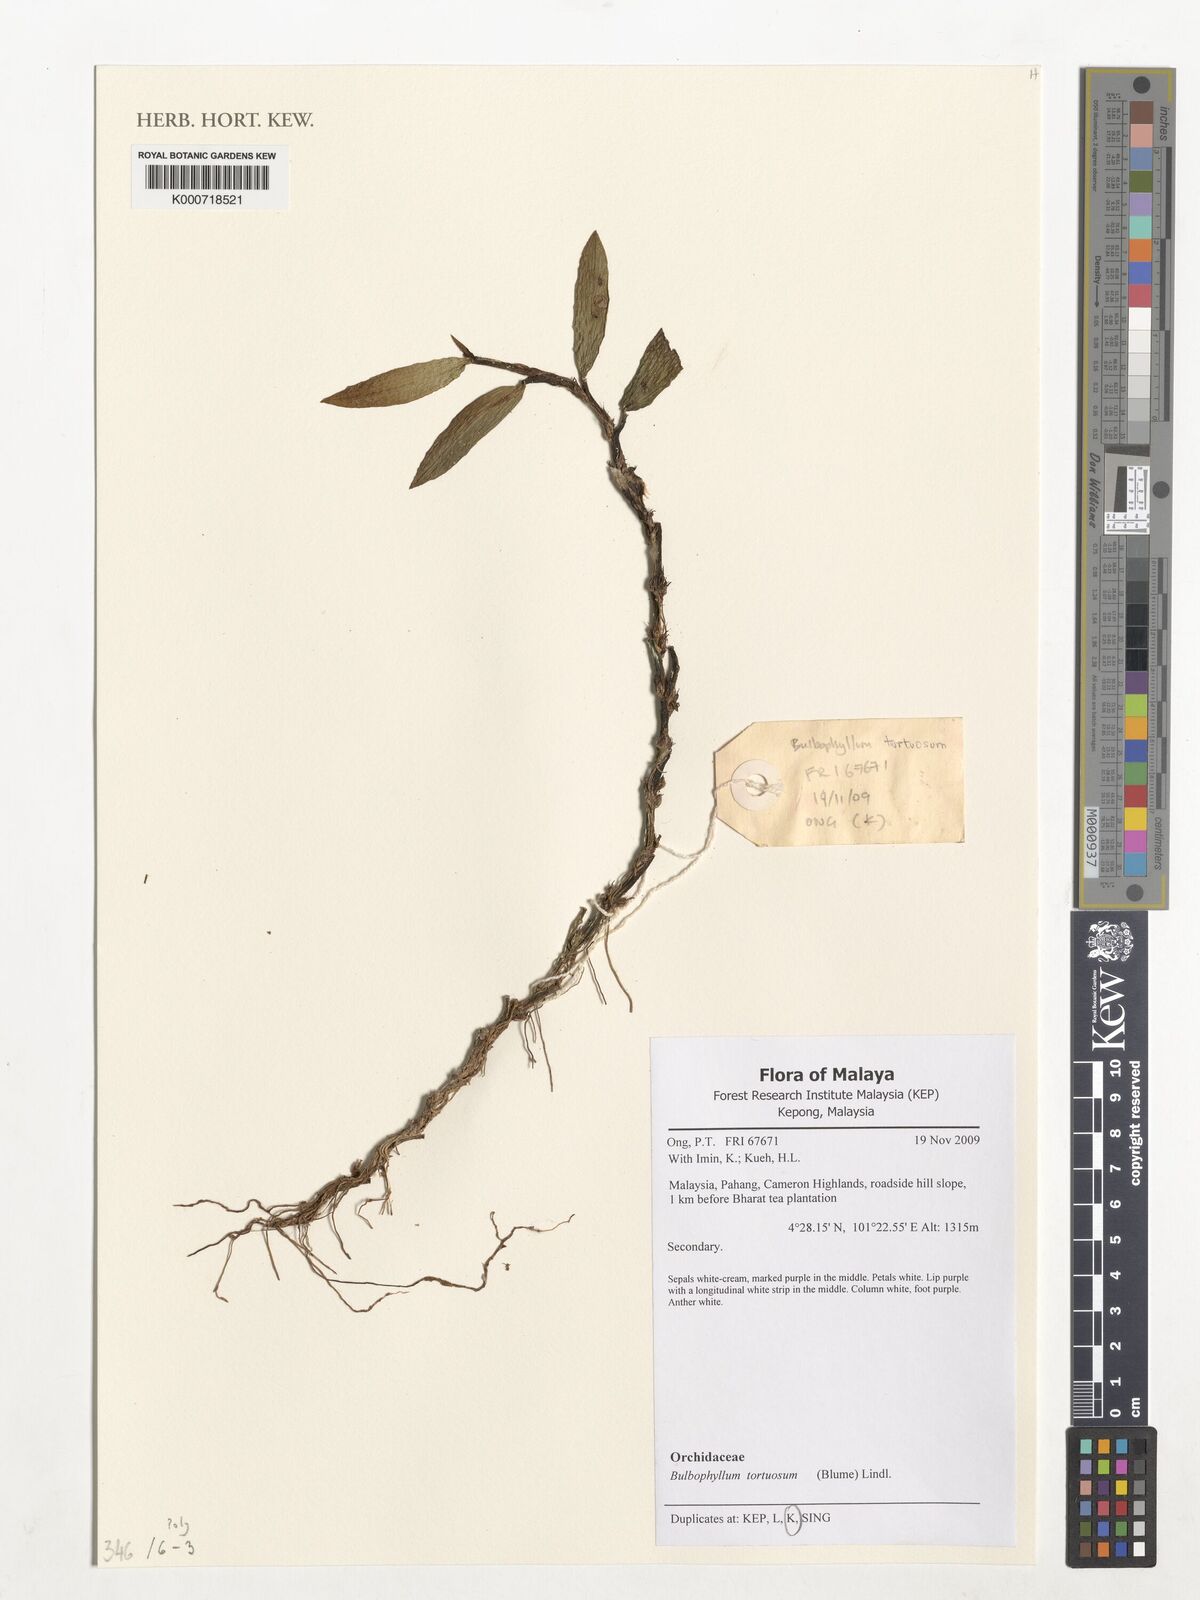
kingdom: Plantae
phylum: Tracheophyta
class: Liliopsida
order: Asparagales
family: Orchidaceae
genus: Bulbophyllum
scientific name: Bulbophyllum tortuosum
